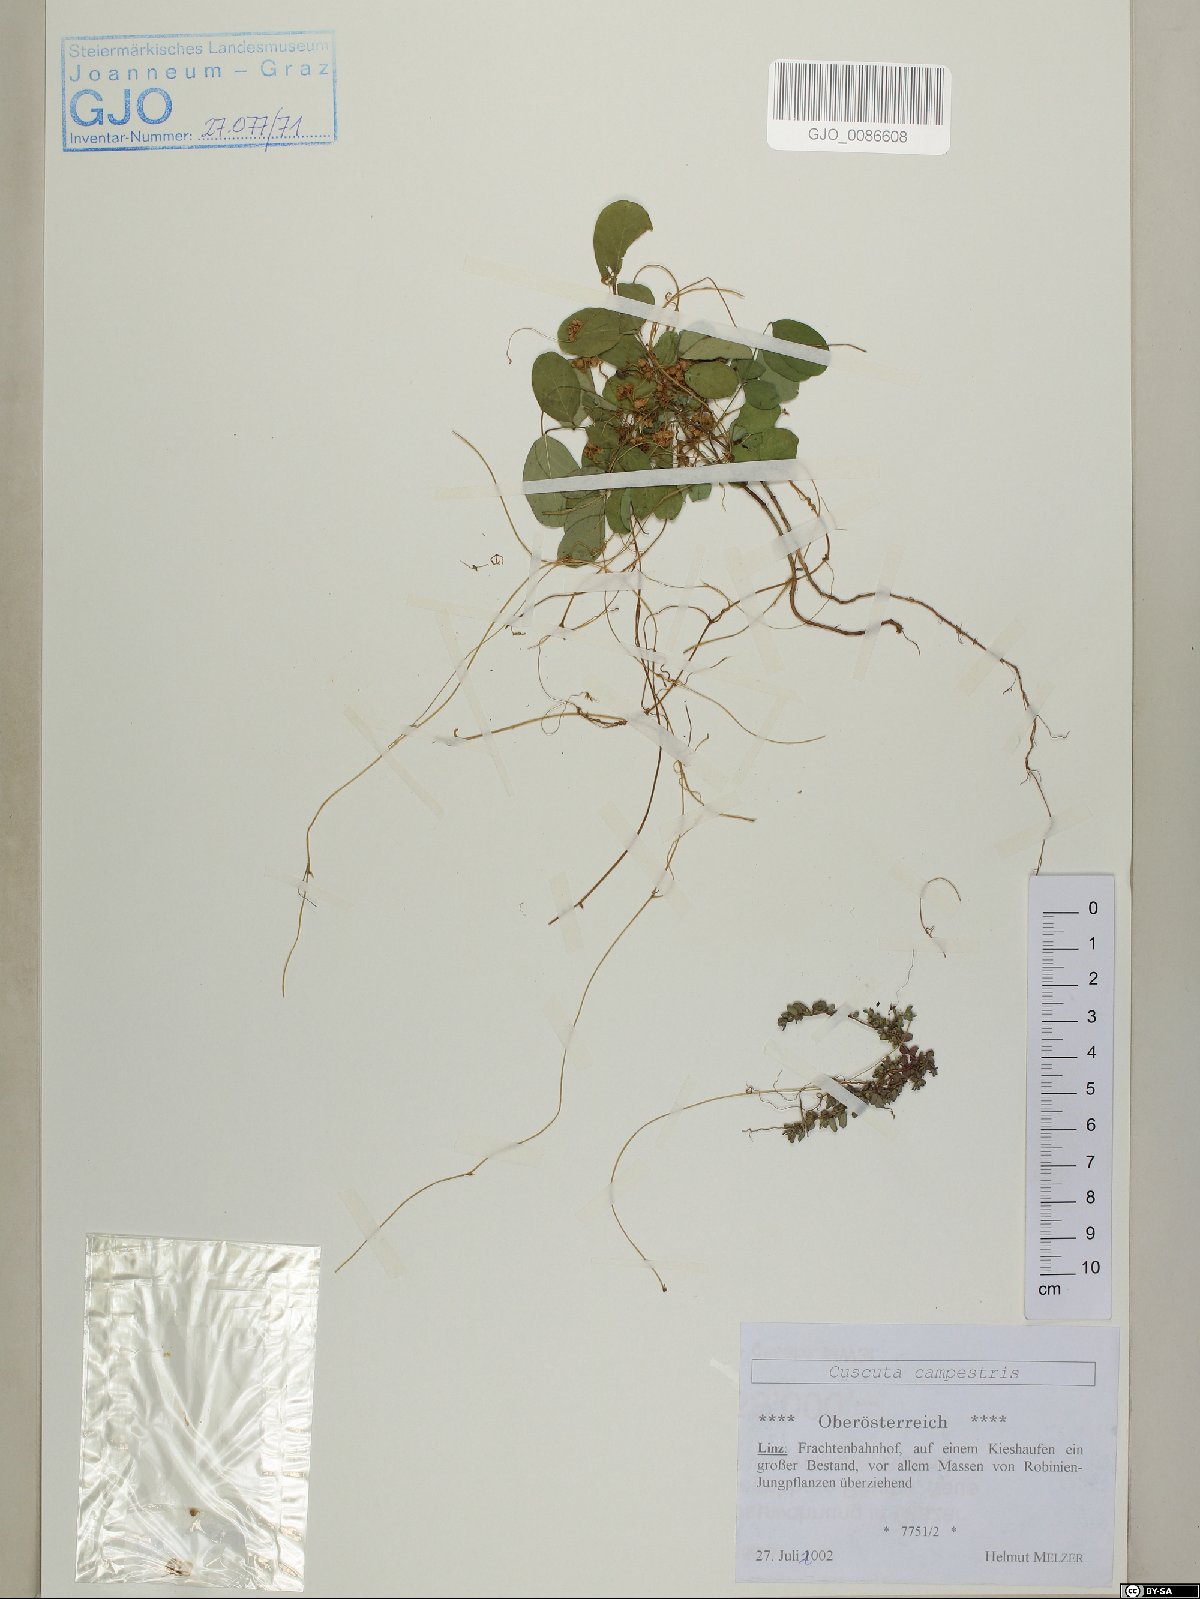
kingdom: Plantae
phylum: Tracheophyta
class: Magnoliopsida
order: Solanales
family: Convolvulaceae
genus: Cuscuta
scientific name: Cuscuta campestris
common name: Yellow dodder
